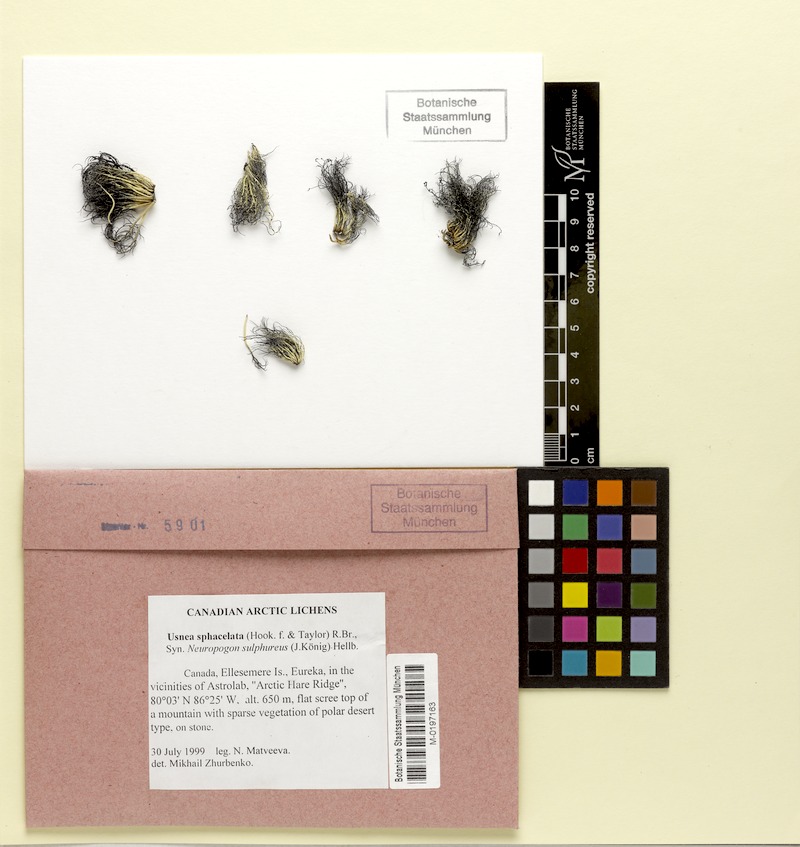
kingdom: Fungi
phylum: Ascomycota
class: Lecanoromycetes
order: Lecanorales
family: Parmeliaceae
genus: Usnea
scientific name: Usnea sphacelata
